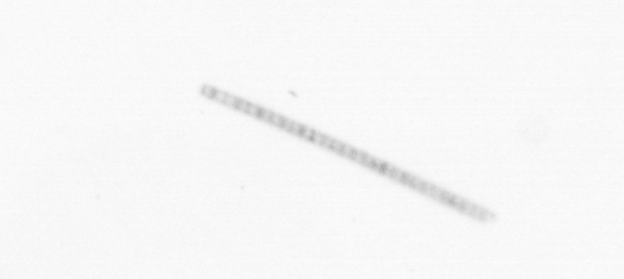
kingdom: Chromista
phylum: Ochrophyta
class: Bacillariophyceae
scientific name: Bacillariophyceae
